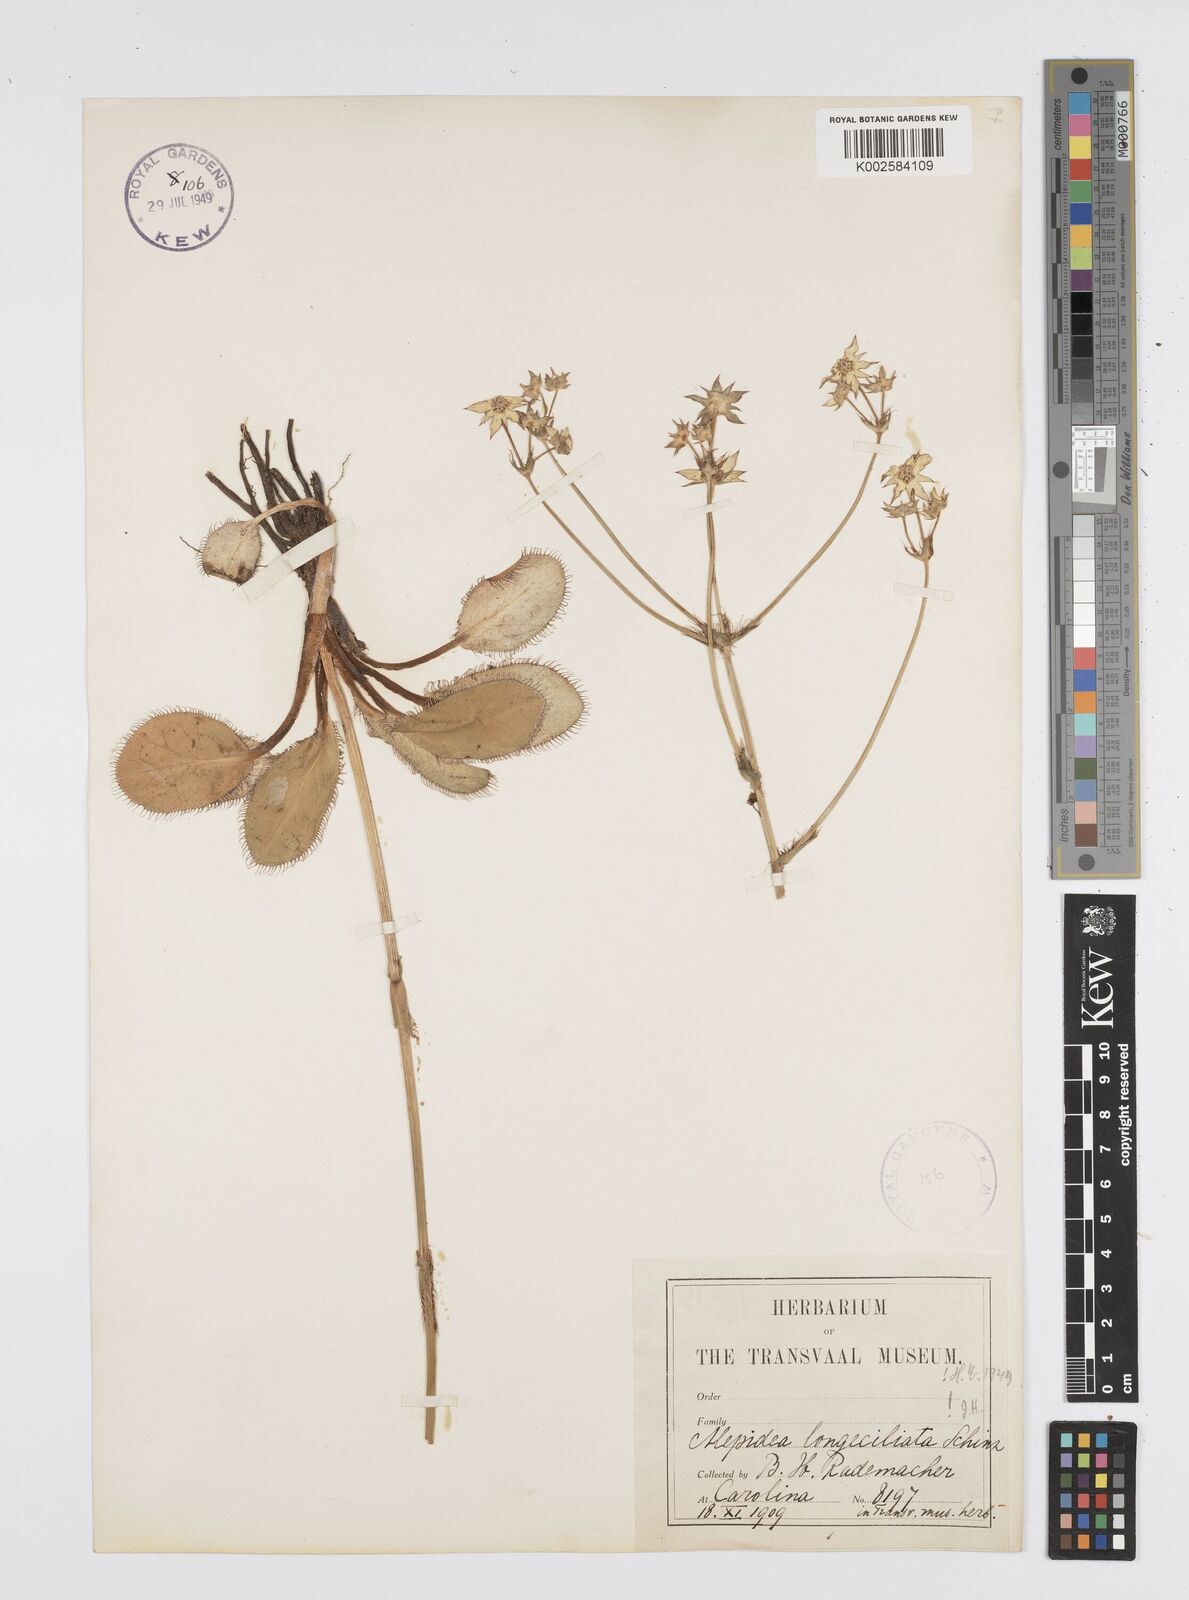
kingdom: Plantae
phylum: Tracheophyta
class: Magnoliopsida
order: Apiales
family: Apiaceae
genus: Alepidea
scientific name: Alepidea longeciliata
